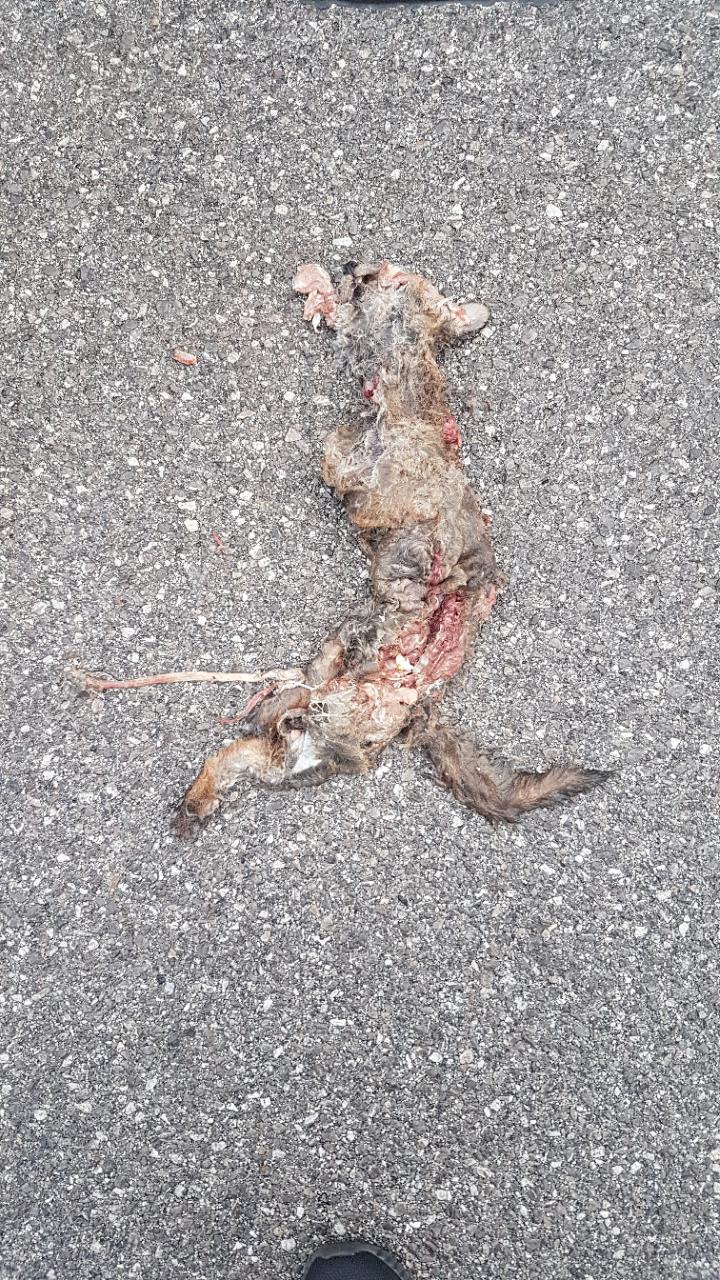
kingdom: Animalia
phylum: Chordata
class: Mammalia
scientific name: Mammalia
